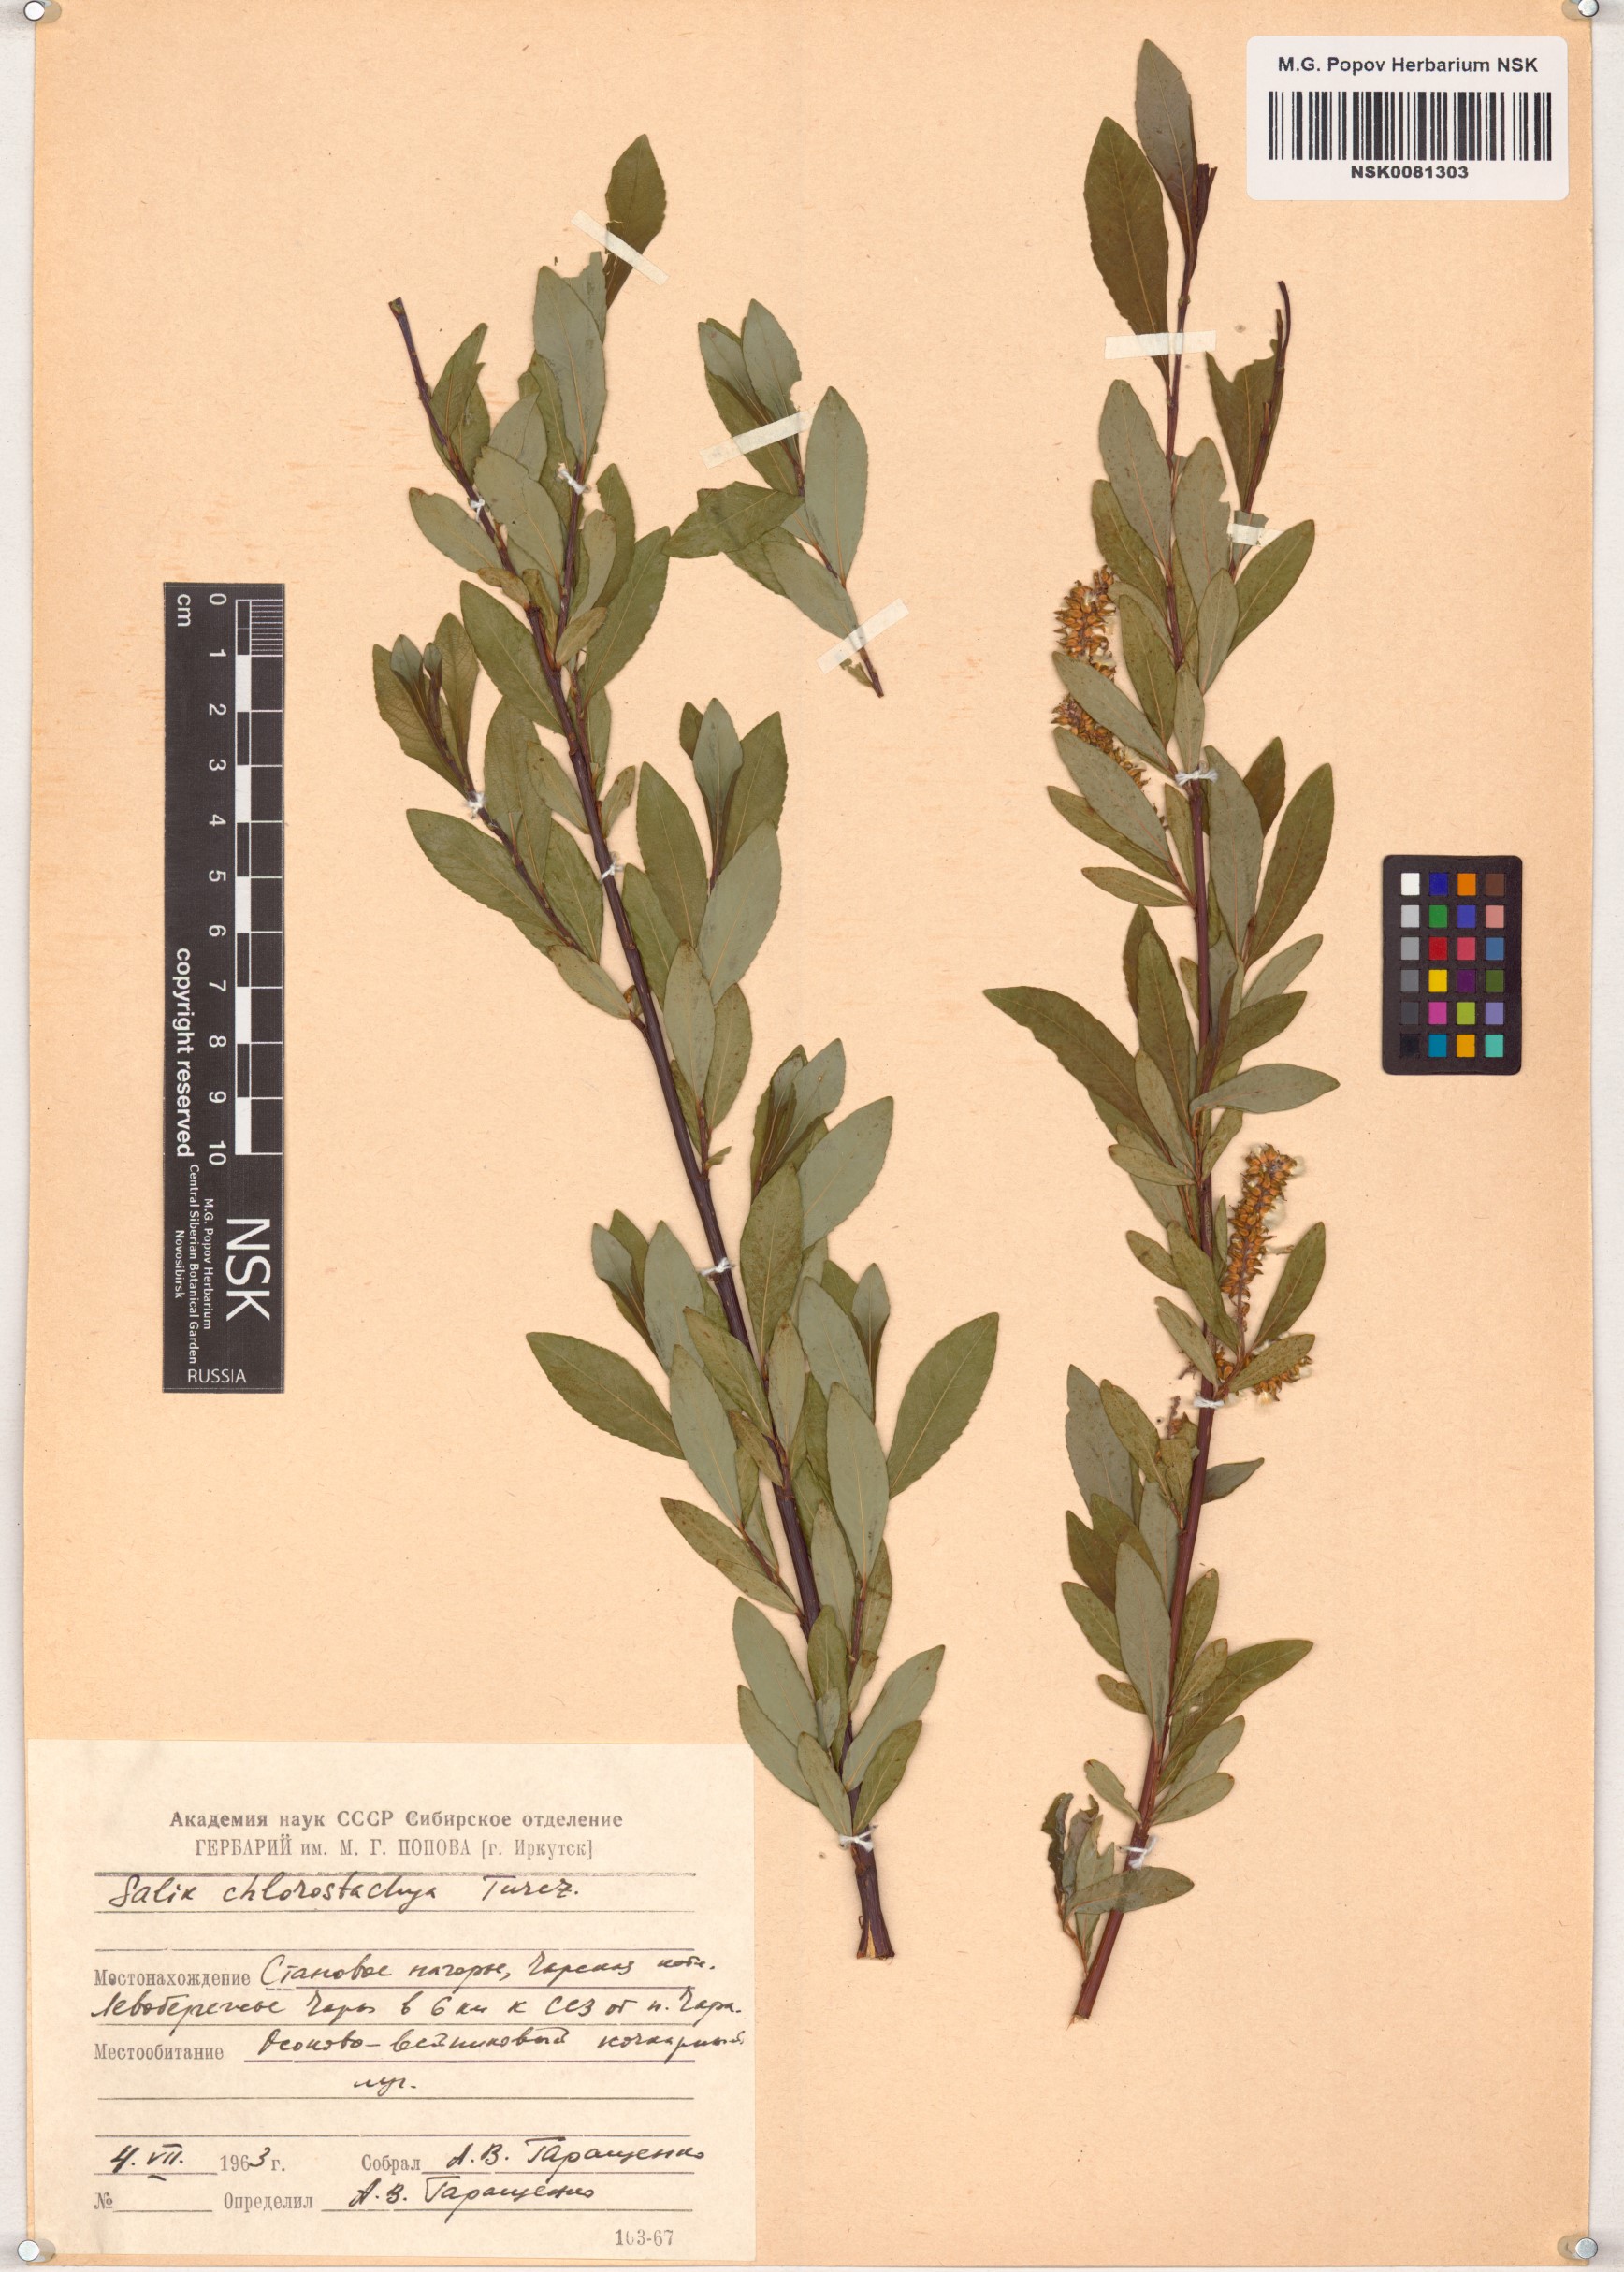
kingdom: Plantae
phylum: Tracheophyta
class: Magnoliopsida
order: Malpighiales
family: Salicaceae
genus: Salix
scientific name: Salix rhamnifolia
